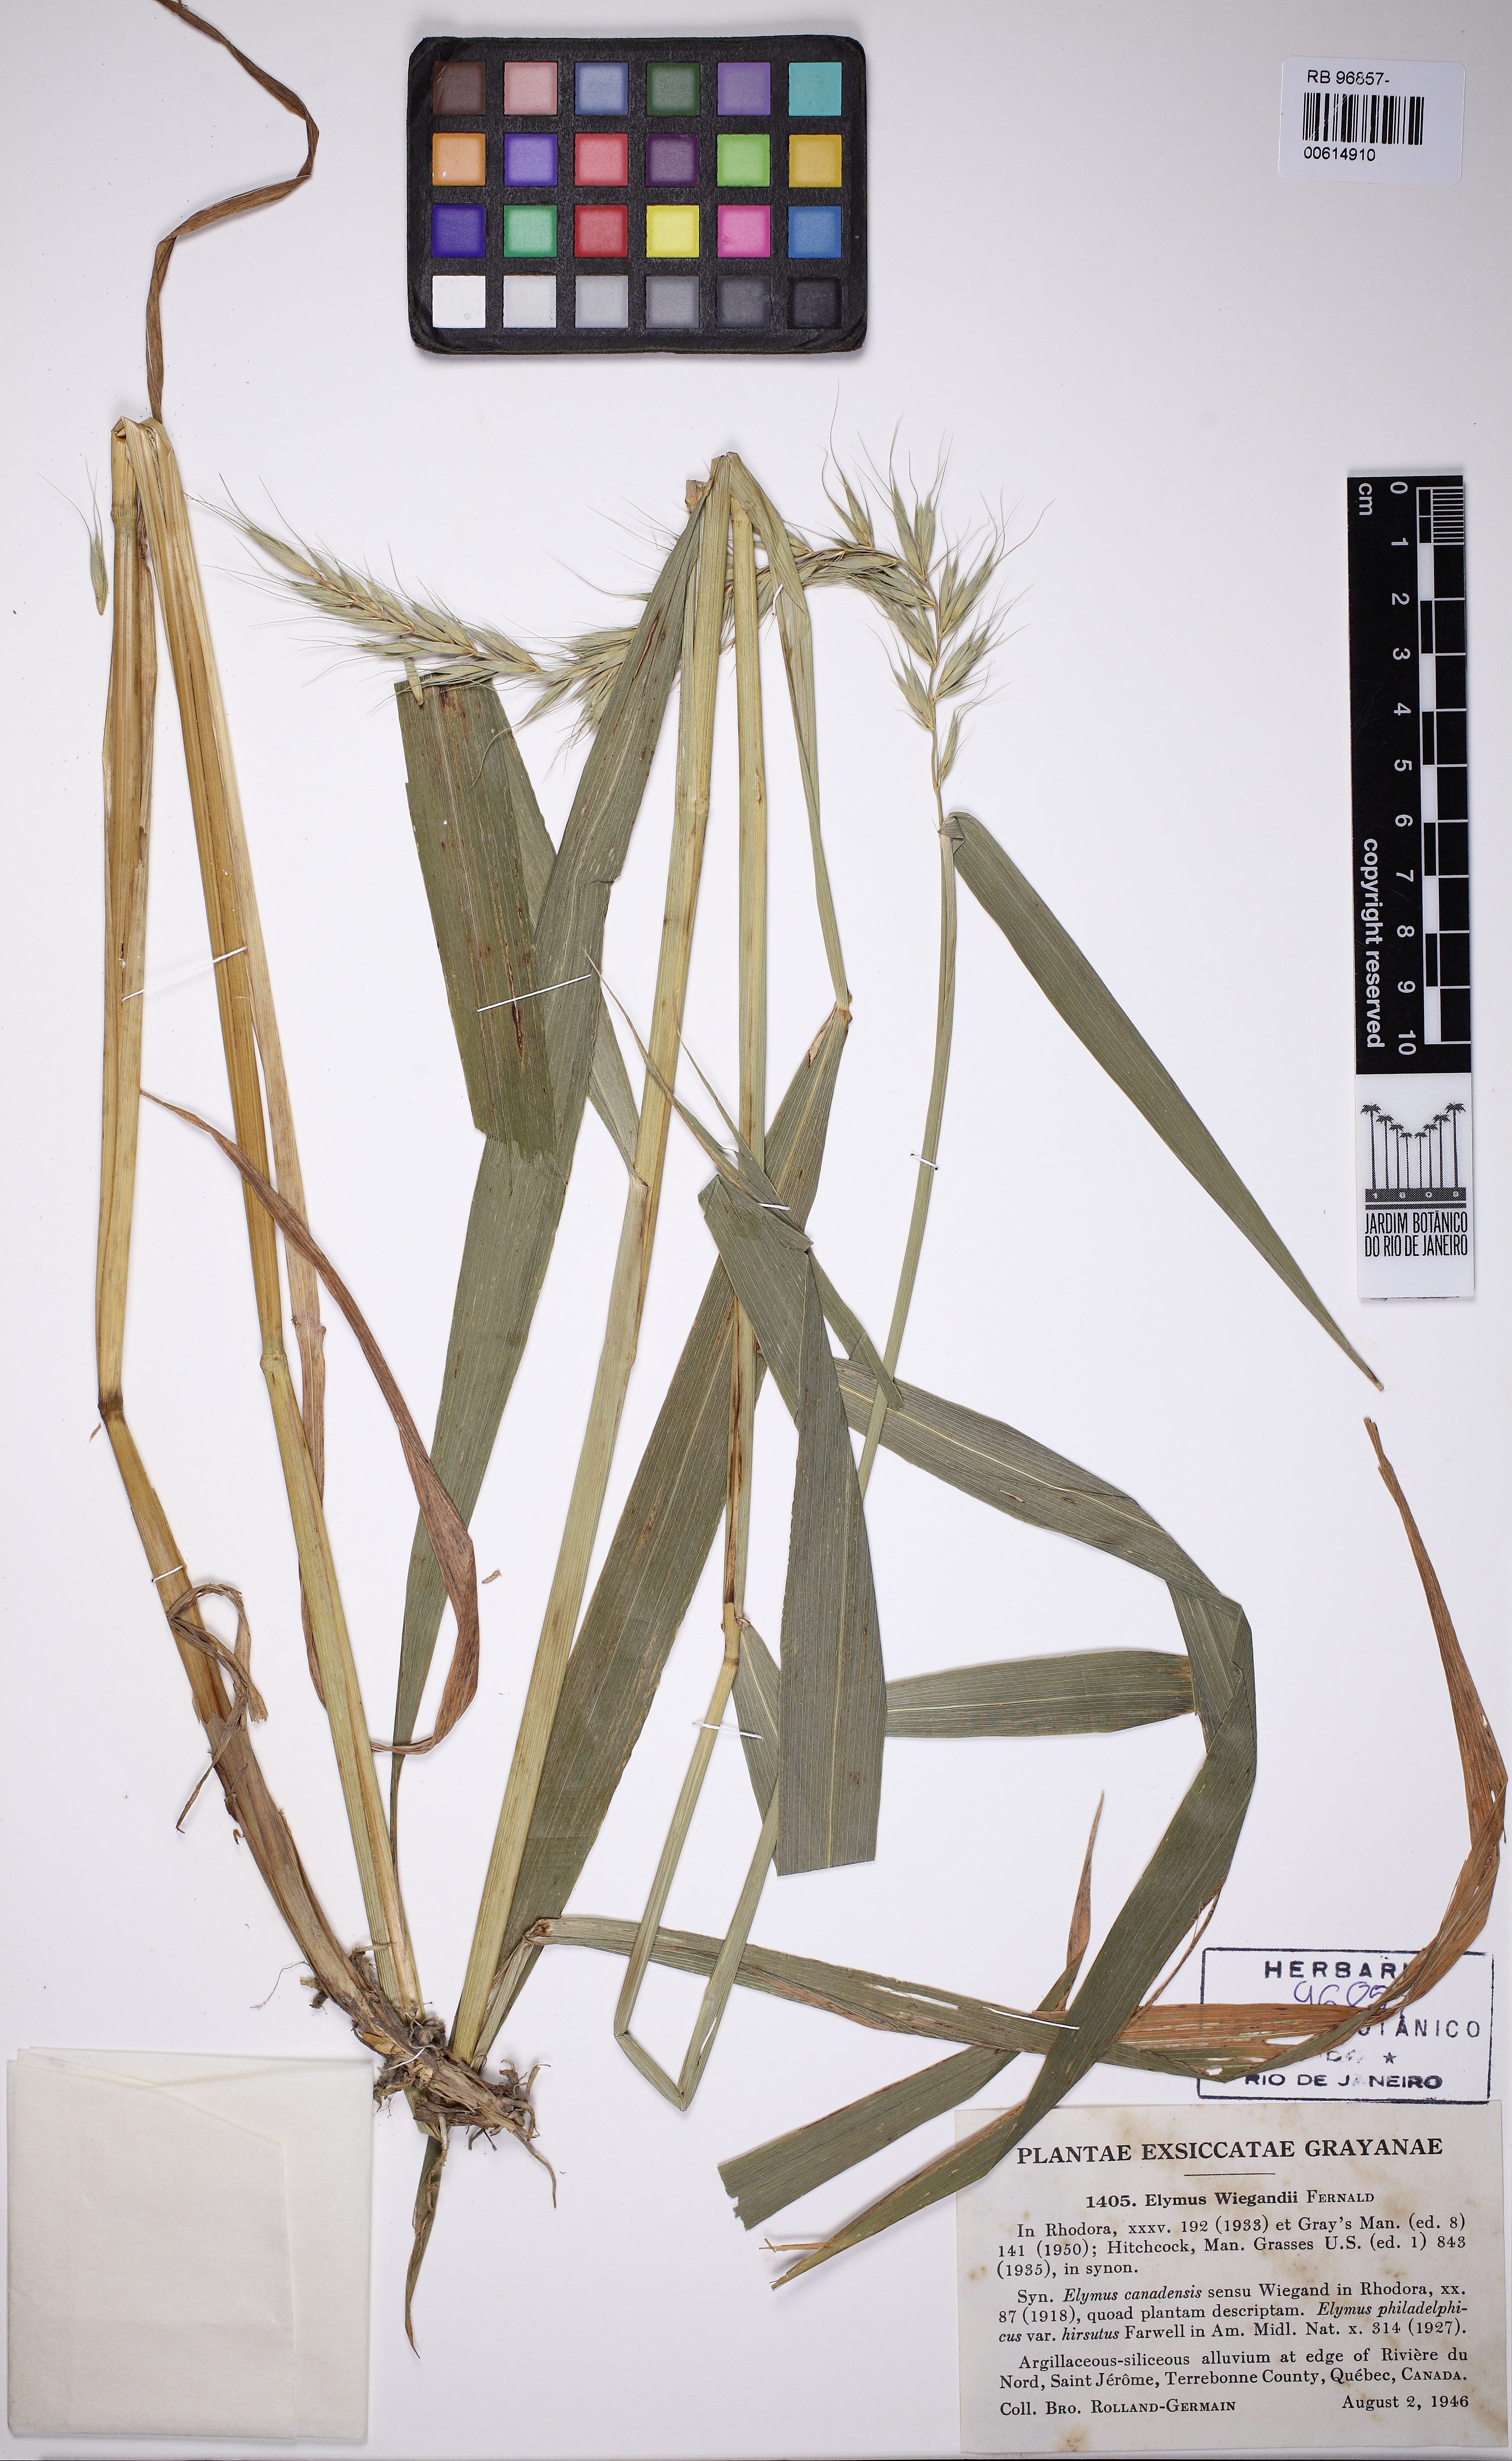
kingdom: Plantae
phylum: Tracheophyta
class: Liliopsida
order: Poales
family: Poaceae
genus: Elymus
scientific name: Elymus canadensis
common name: Canada wild rye
